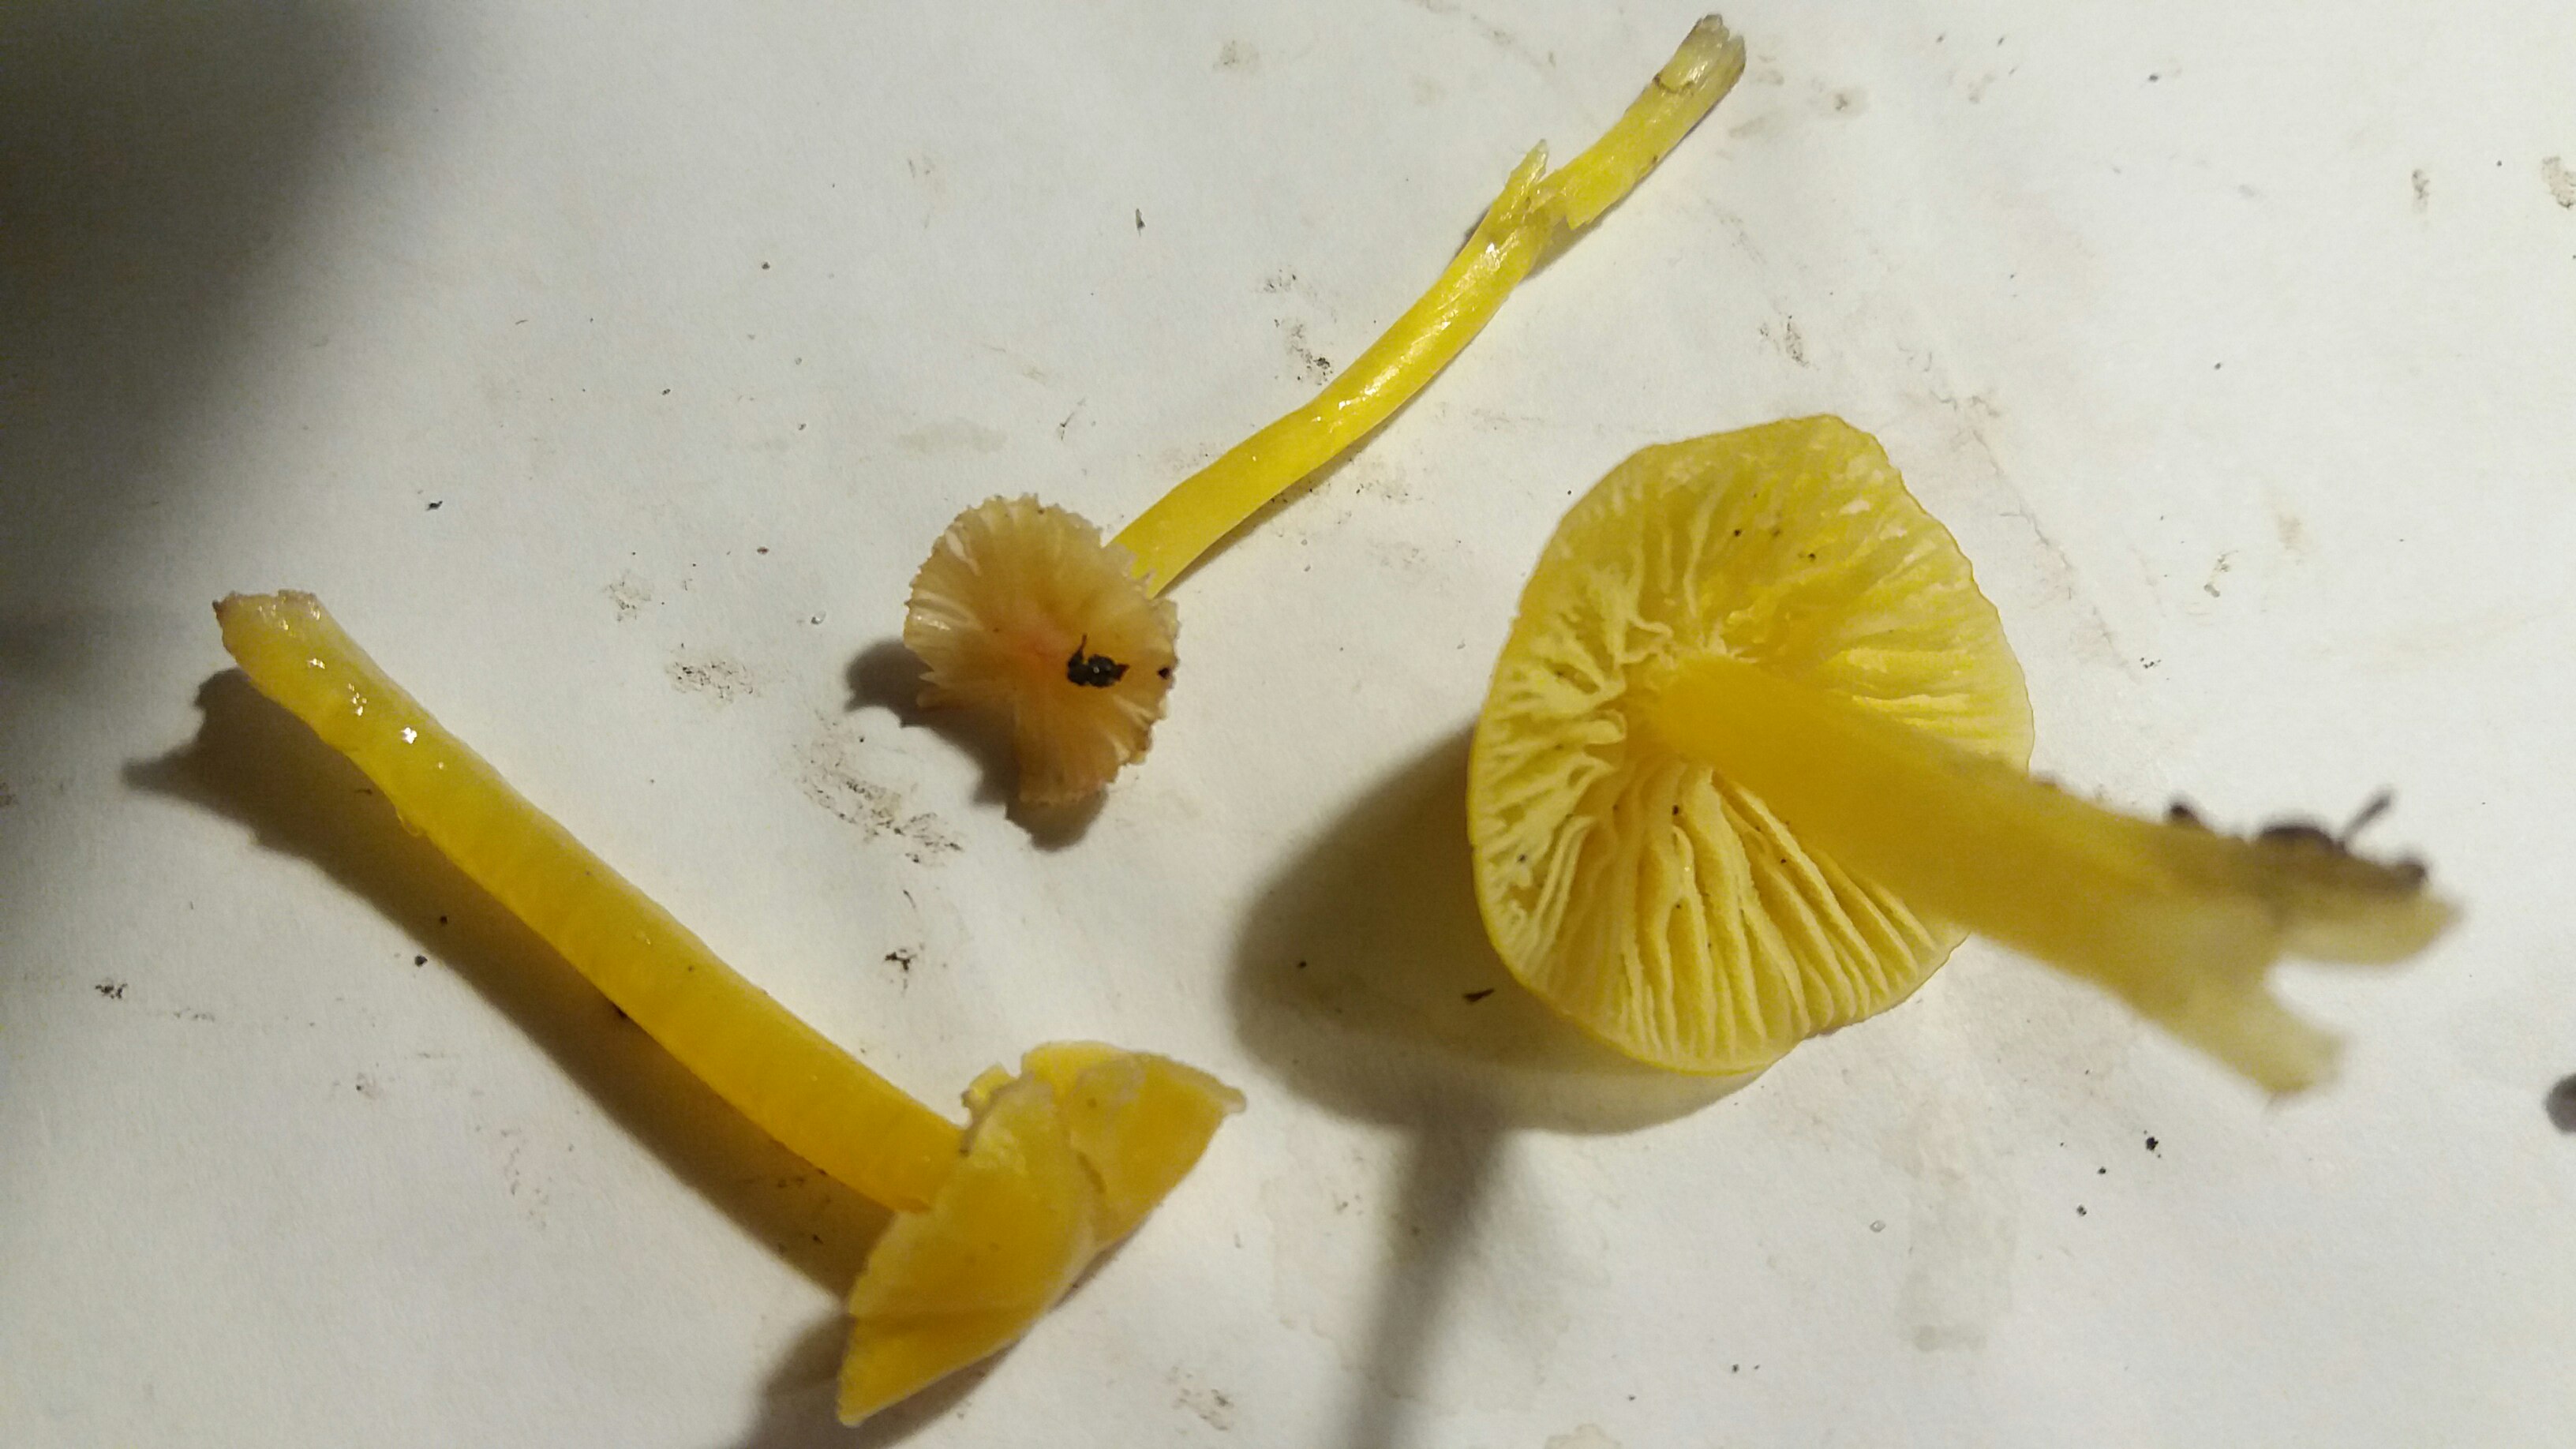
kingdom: Fungi
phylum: Basidiomycota
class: Agaricomycetes
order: Agaricales
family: Hygrophoraceae
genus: Hygrocybe
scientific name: Hygrocybe glutinipes
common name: slimstokket vokshat
